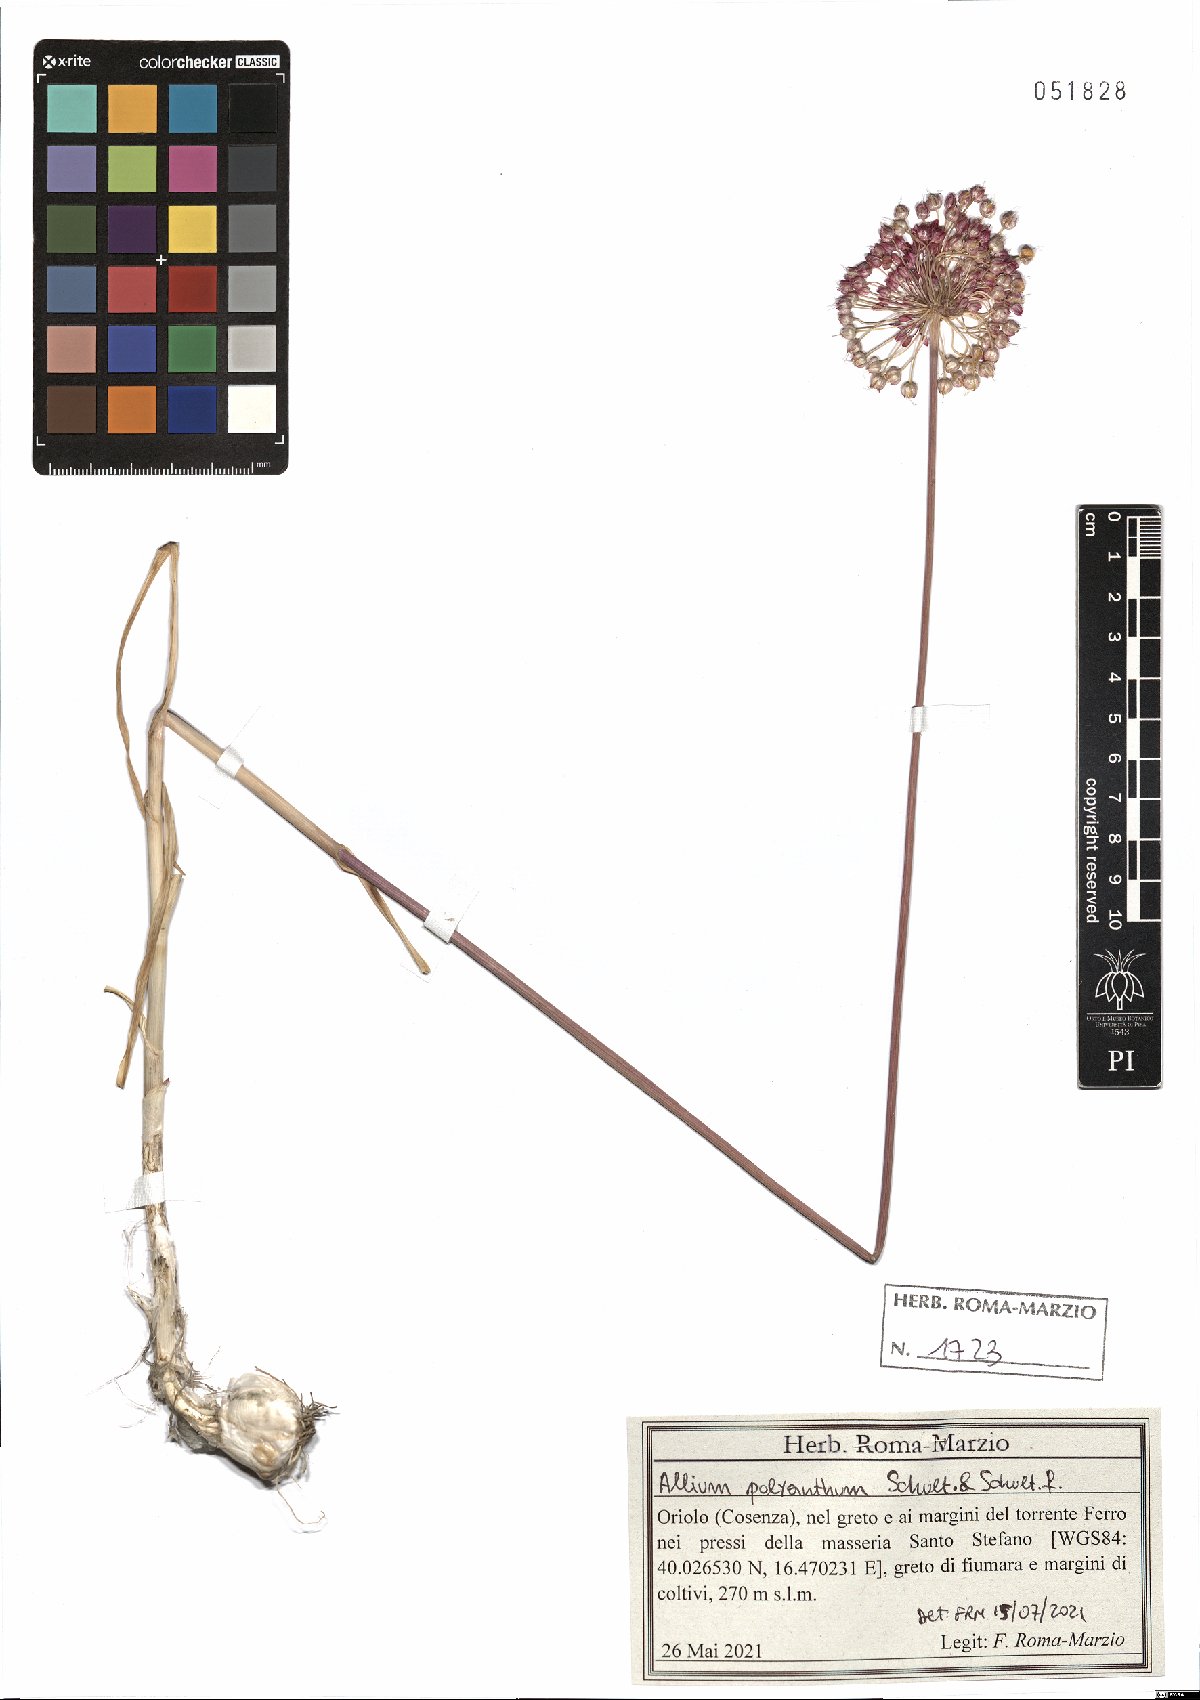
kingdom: Plantae
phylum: Tracheophyta
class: Liliopsida
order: Asparagales
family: Amaryllidaceae
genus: Allium
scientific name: Allium ampeloprasum
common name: Wild leek
